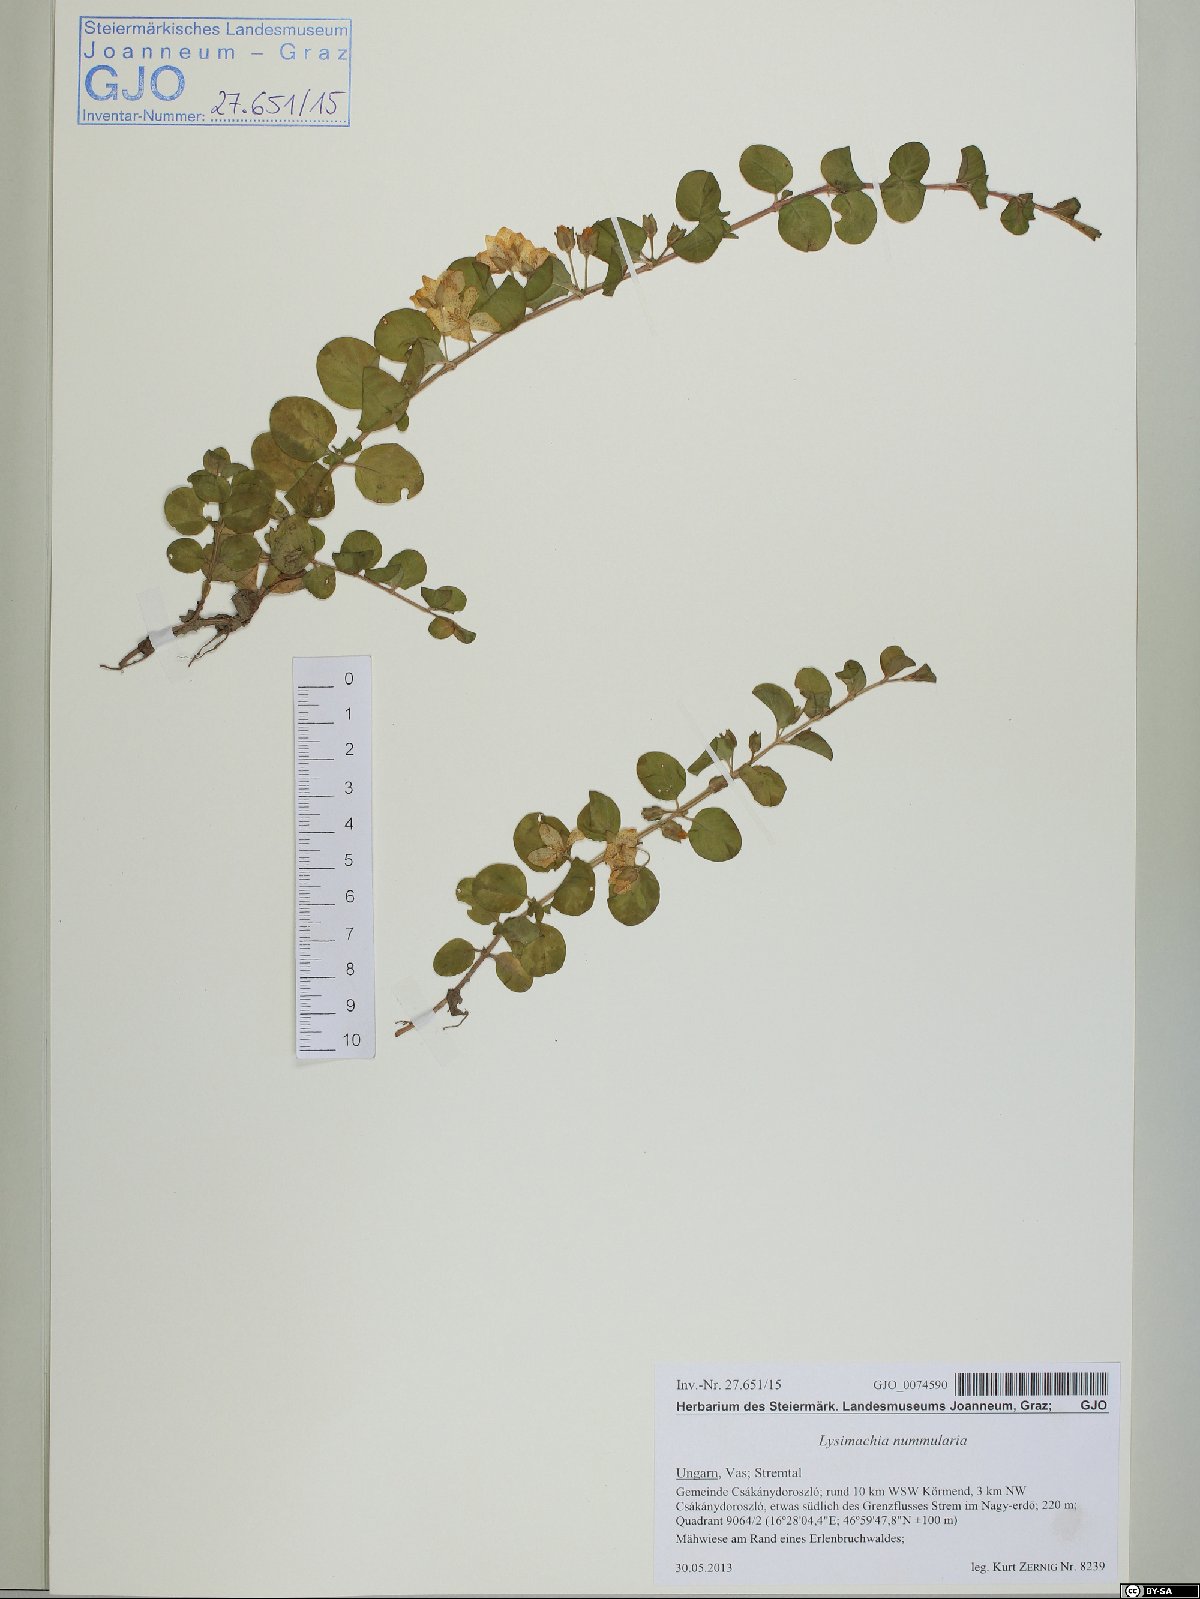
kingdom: Plantae
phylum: Tracheophyta
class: Magnoliopsida
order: Ericales
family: Primulaceae
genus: Lysimachia
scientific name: Lysimachia nummularia
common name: Moneywort
